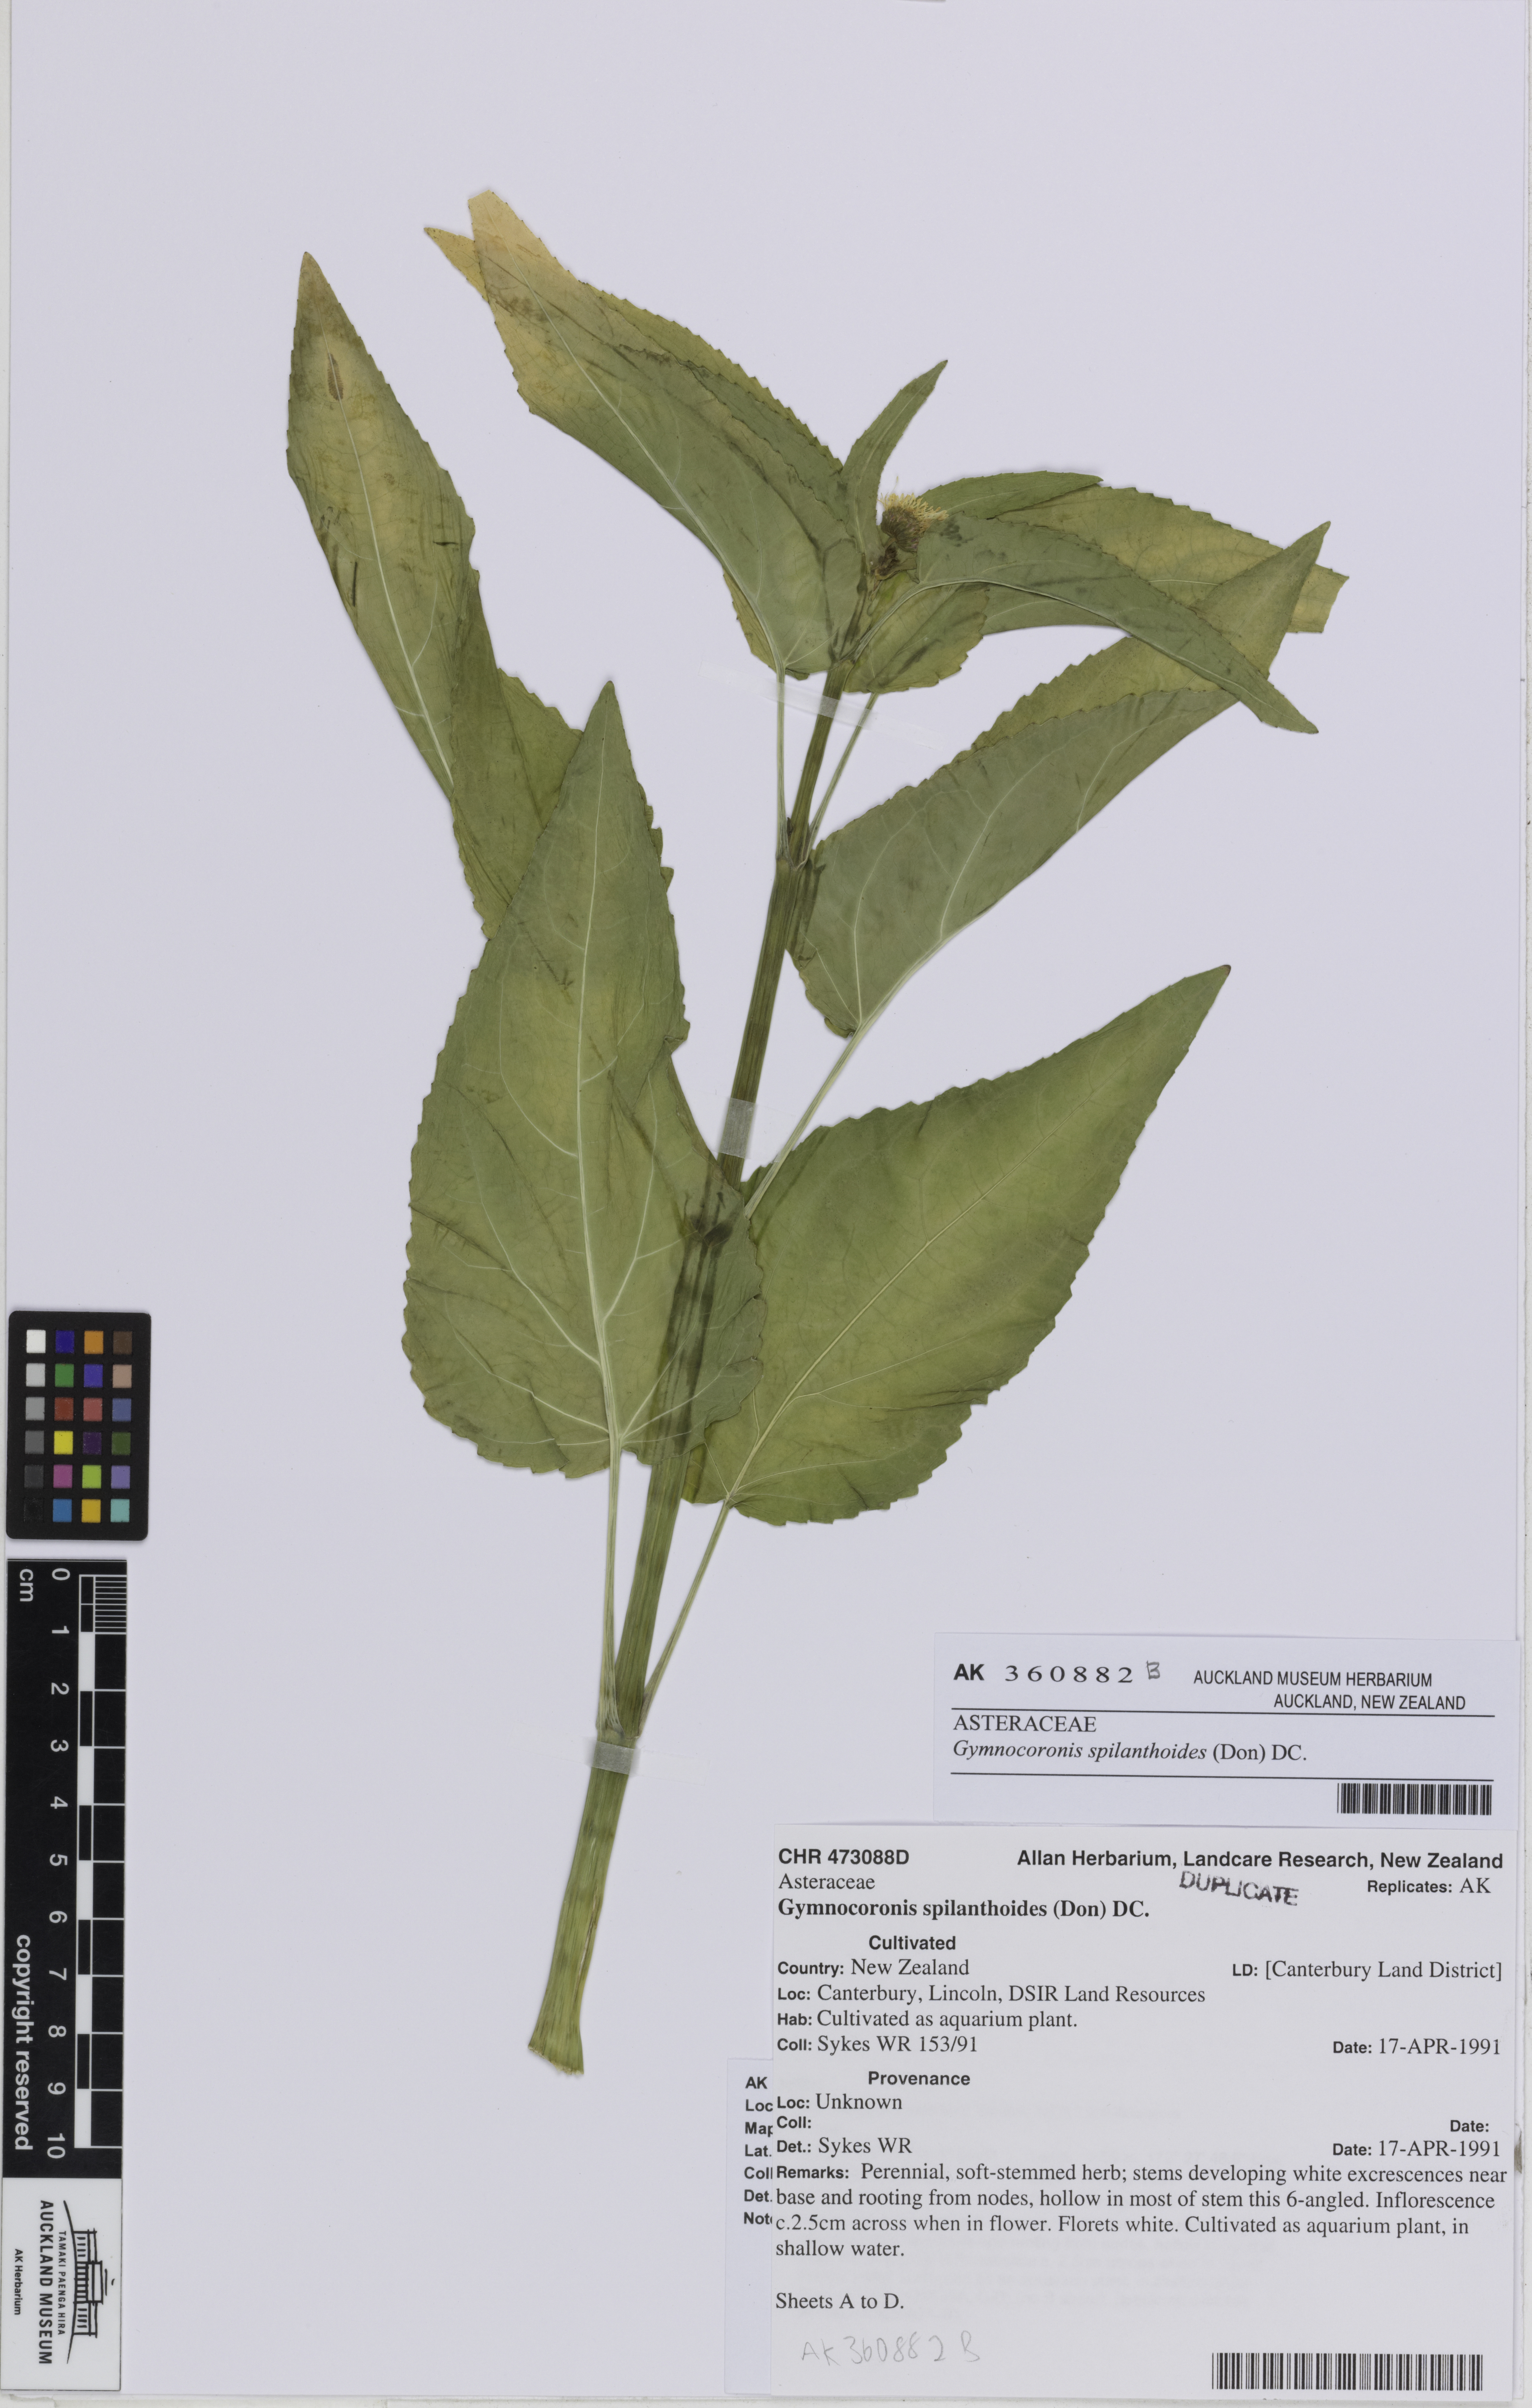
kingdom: Plantae
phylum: Tracheophyta
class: Magnoliopsida
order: Asterales
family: Asteraceae
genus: Gymnocoronis
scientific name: Gymnocoronis spilanthoides
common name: Senegal teaplant
